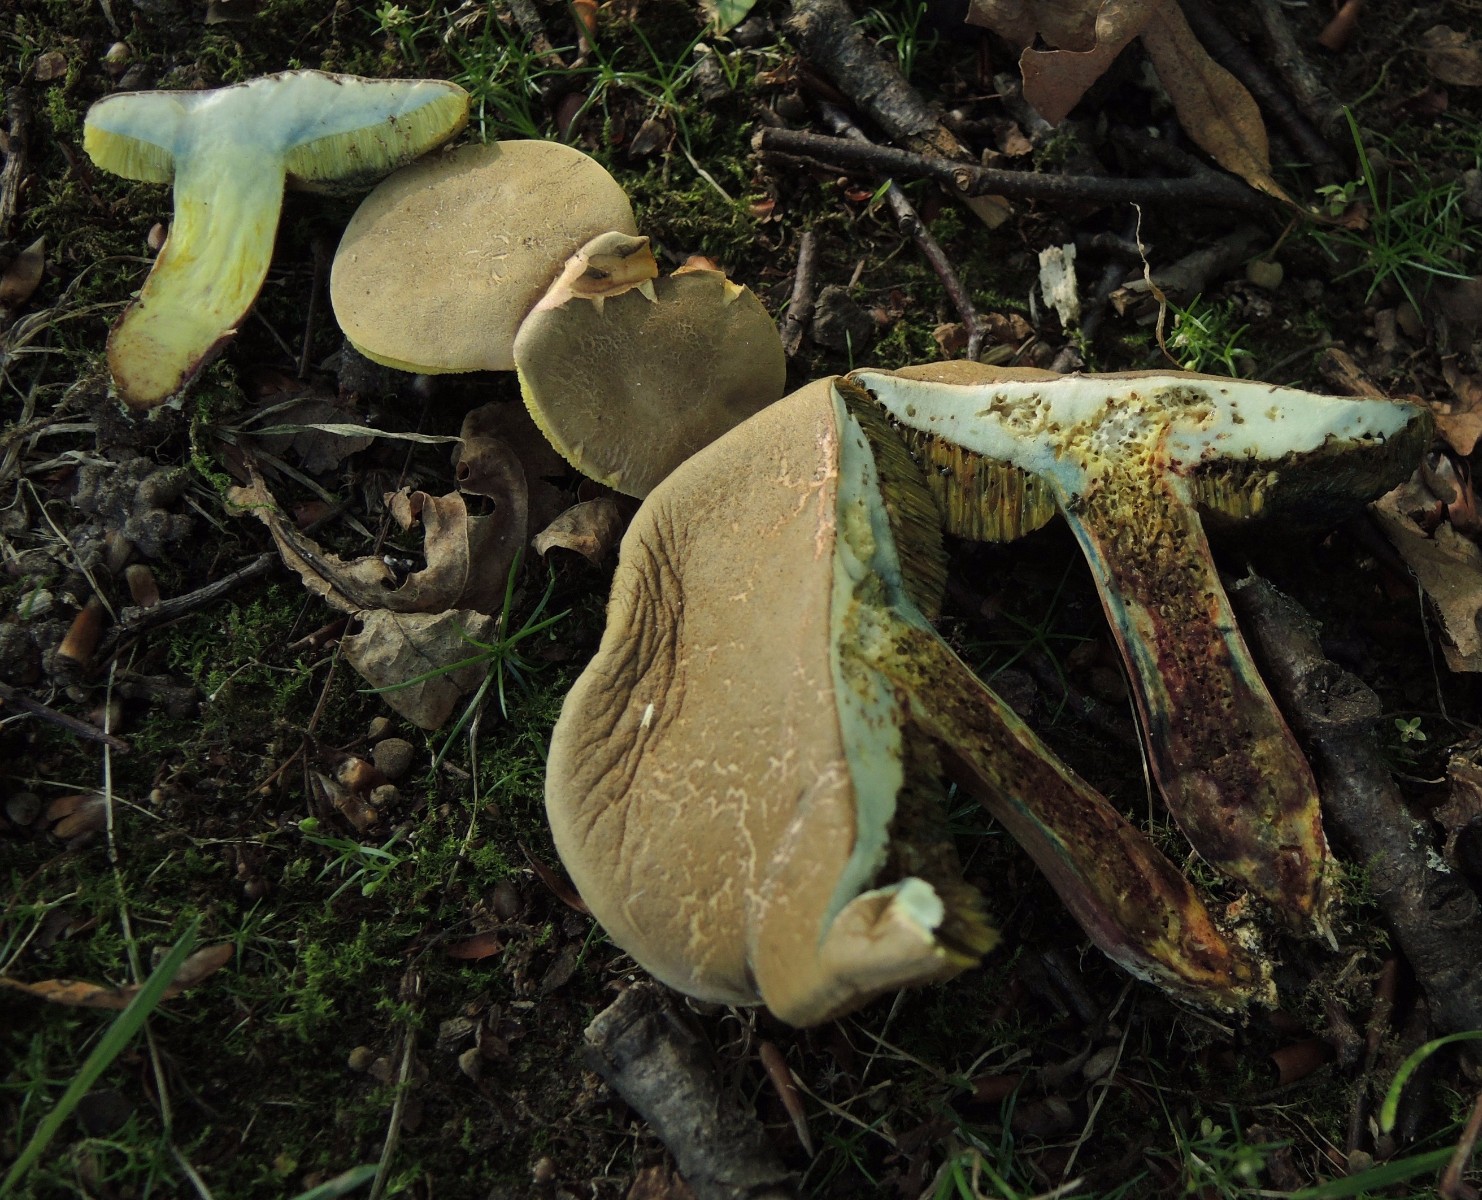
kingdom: Fungi
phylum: Basidiomycota
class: Agaricomycetes
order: Boletales
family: Boletaceae
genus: Hortiboletus
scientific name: Hortiboletus engelii
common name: fersken-rørhat
